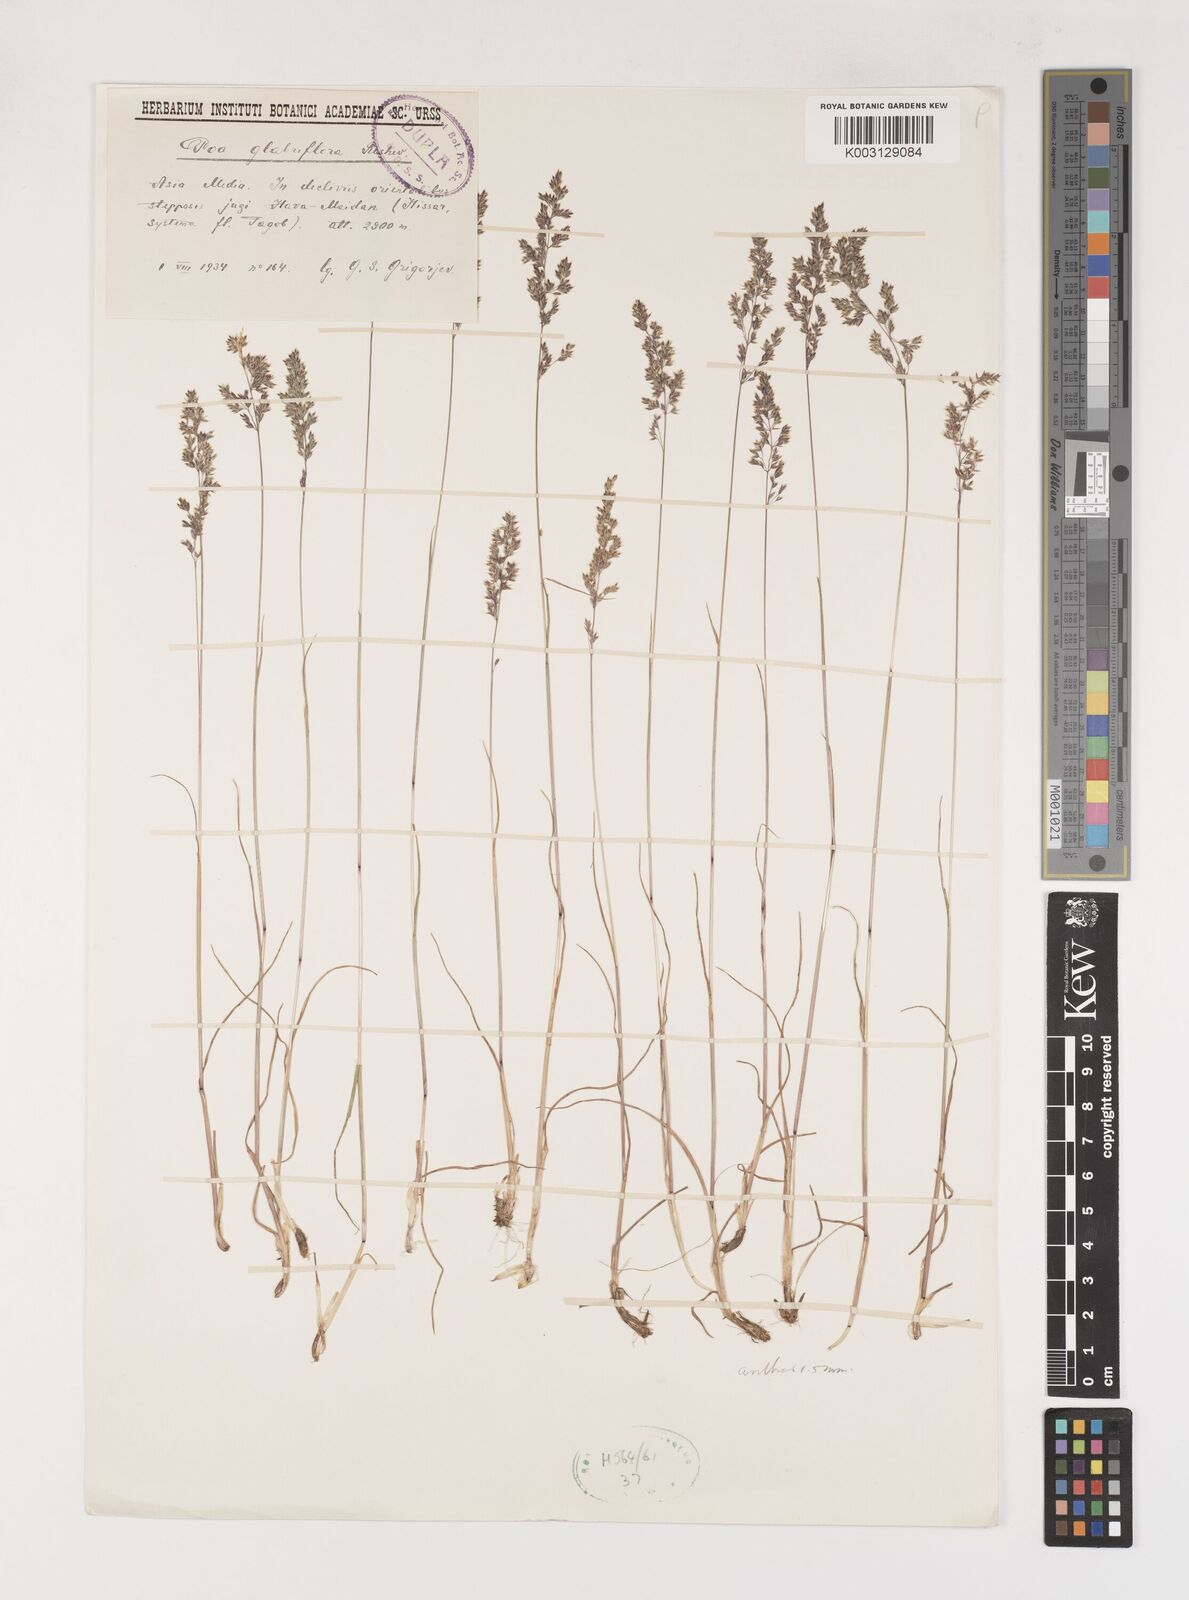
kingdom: Plantae
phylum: Tracheophyta
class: Liliopsida
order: Poales
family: Poaceae
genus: Poa
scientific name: Poa bactriana
